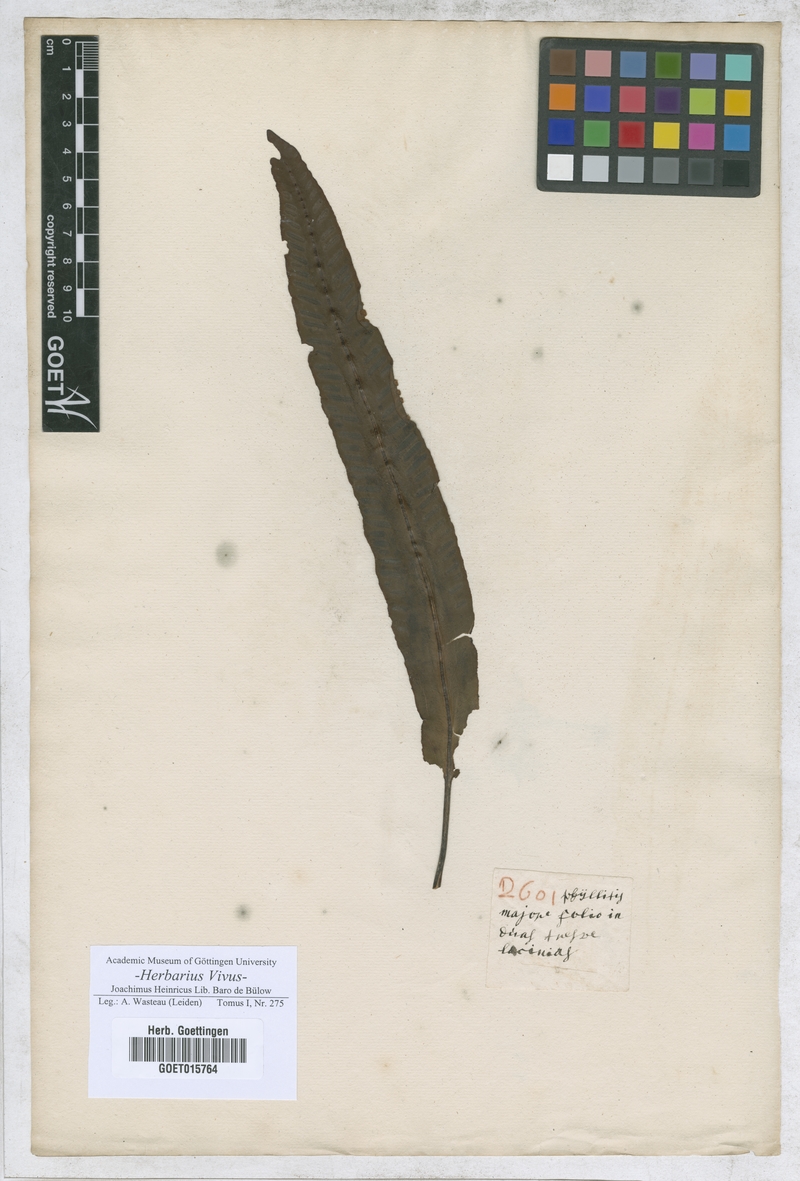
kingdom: Plantae
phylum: Tracheophyta
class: Polypodiopsida
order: Polypodiales
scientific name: Polypodiales
